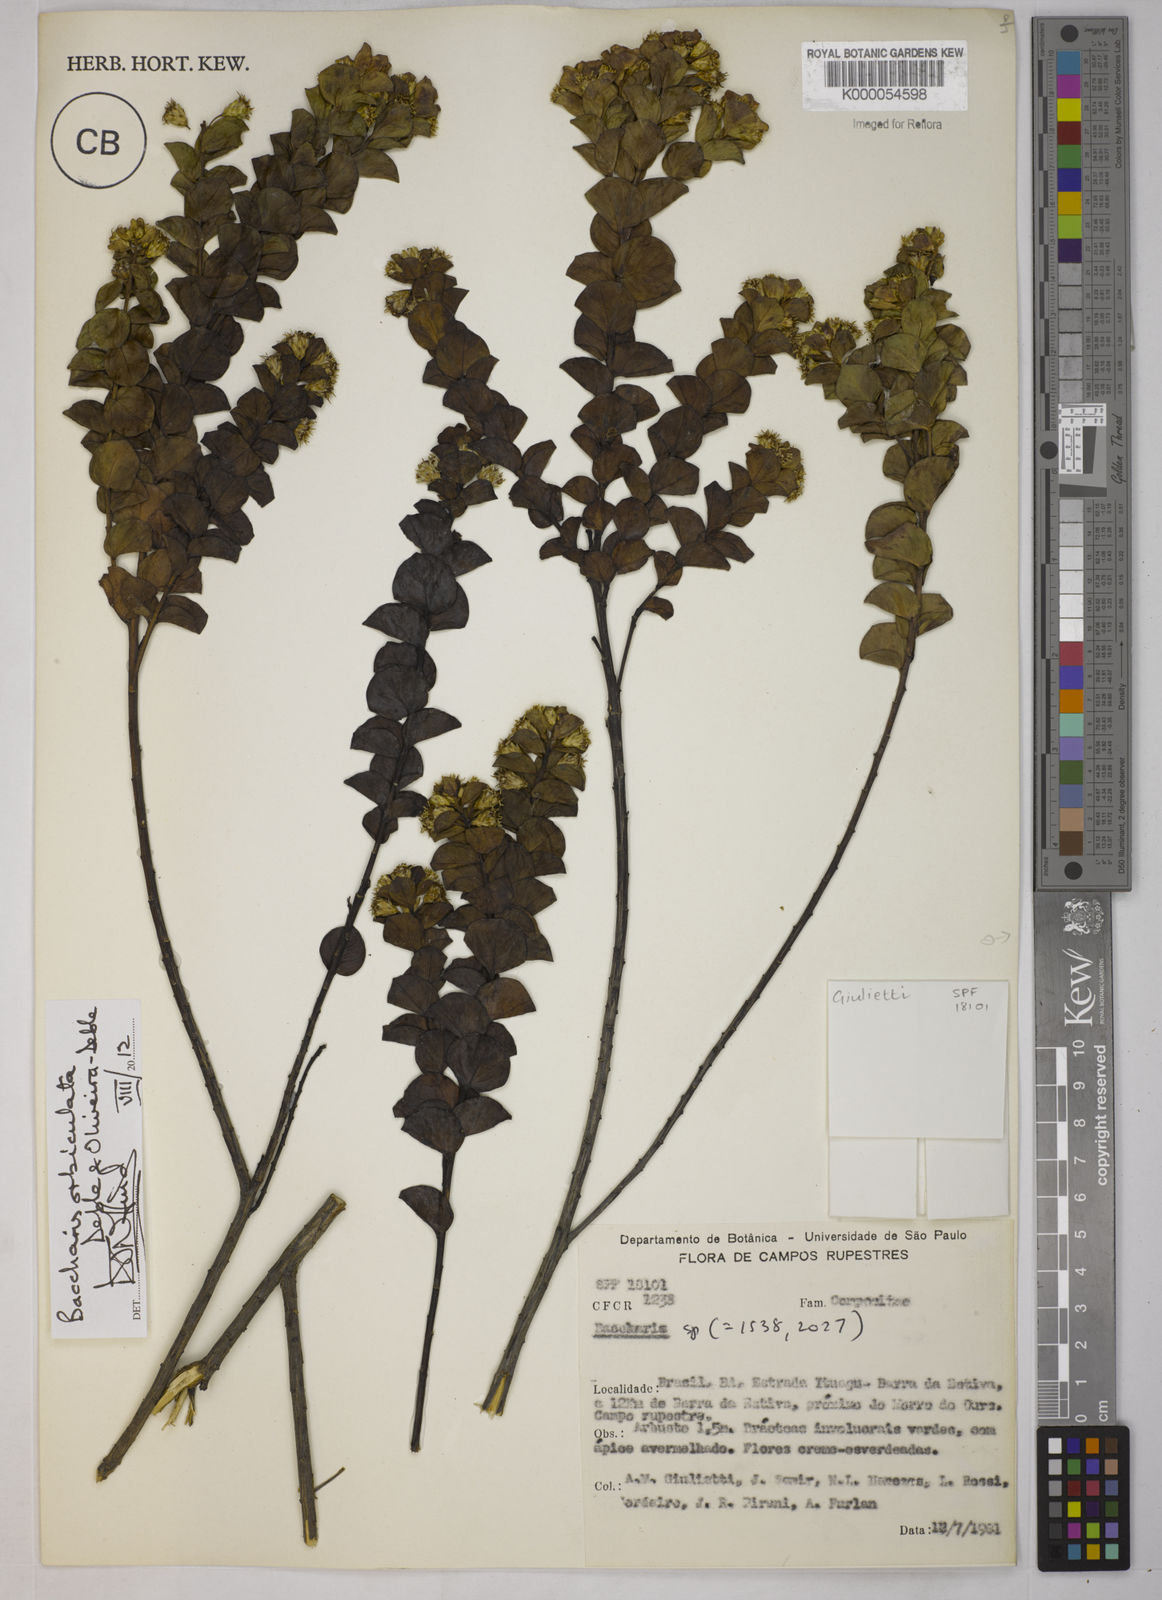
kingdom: Plantae
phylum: Tracheophyta
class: Magnoliopsida
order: Asterales
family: Asteraceae
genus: Baccharis
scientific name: Baccharis
